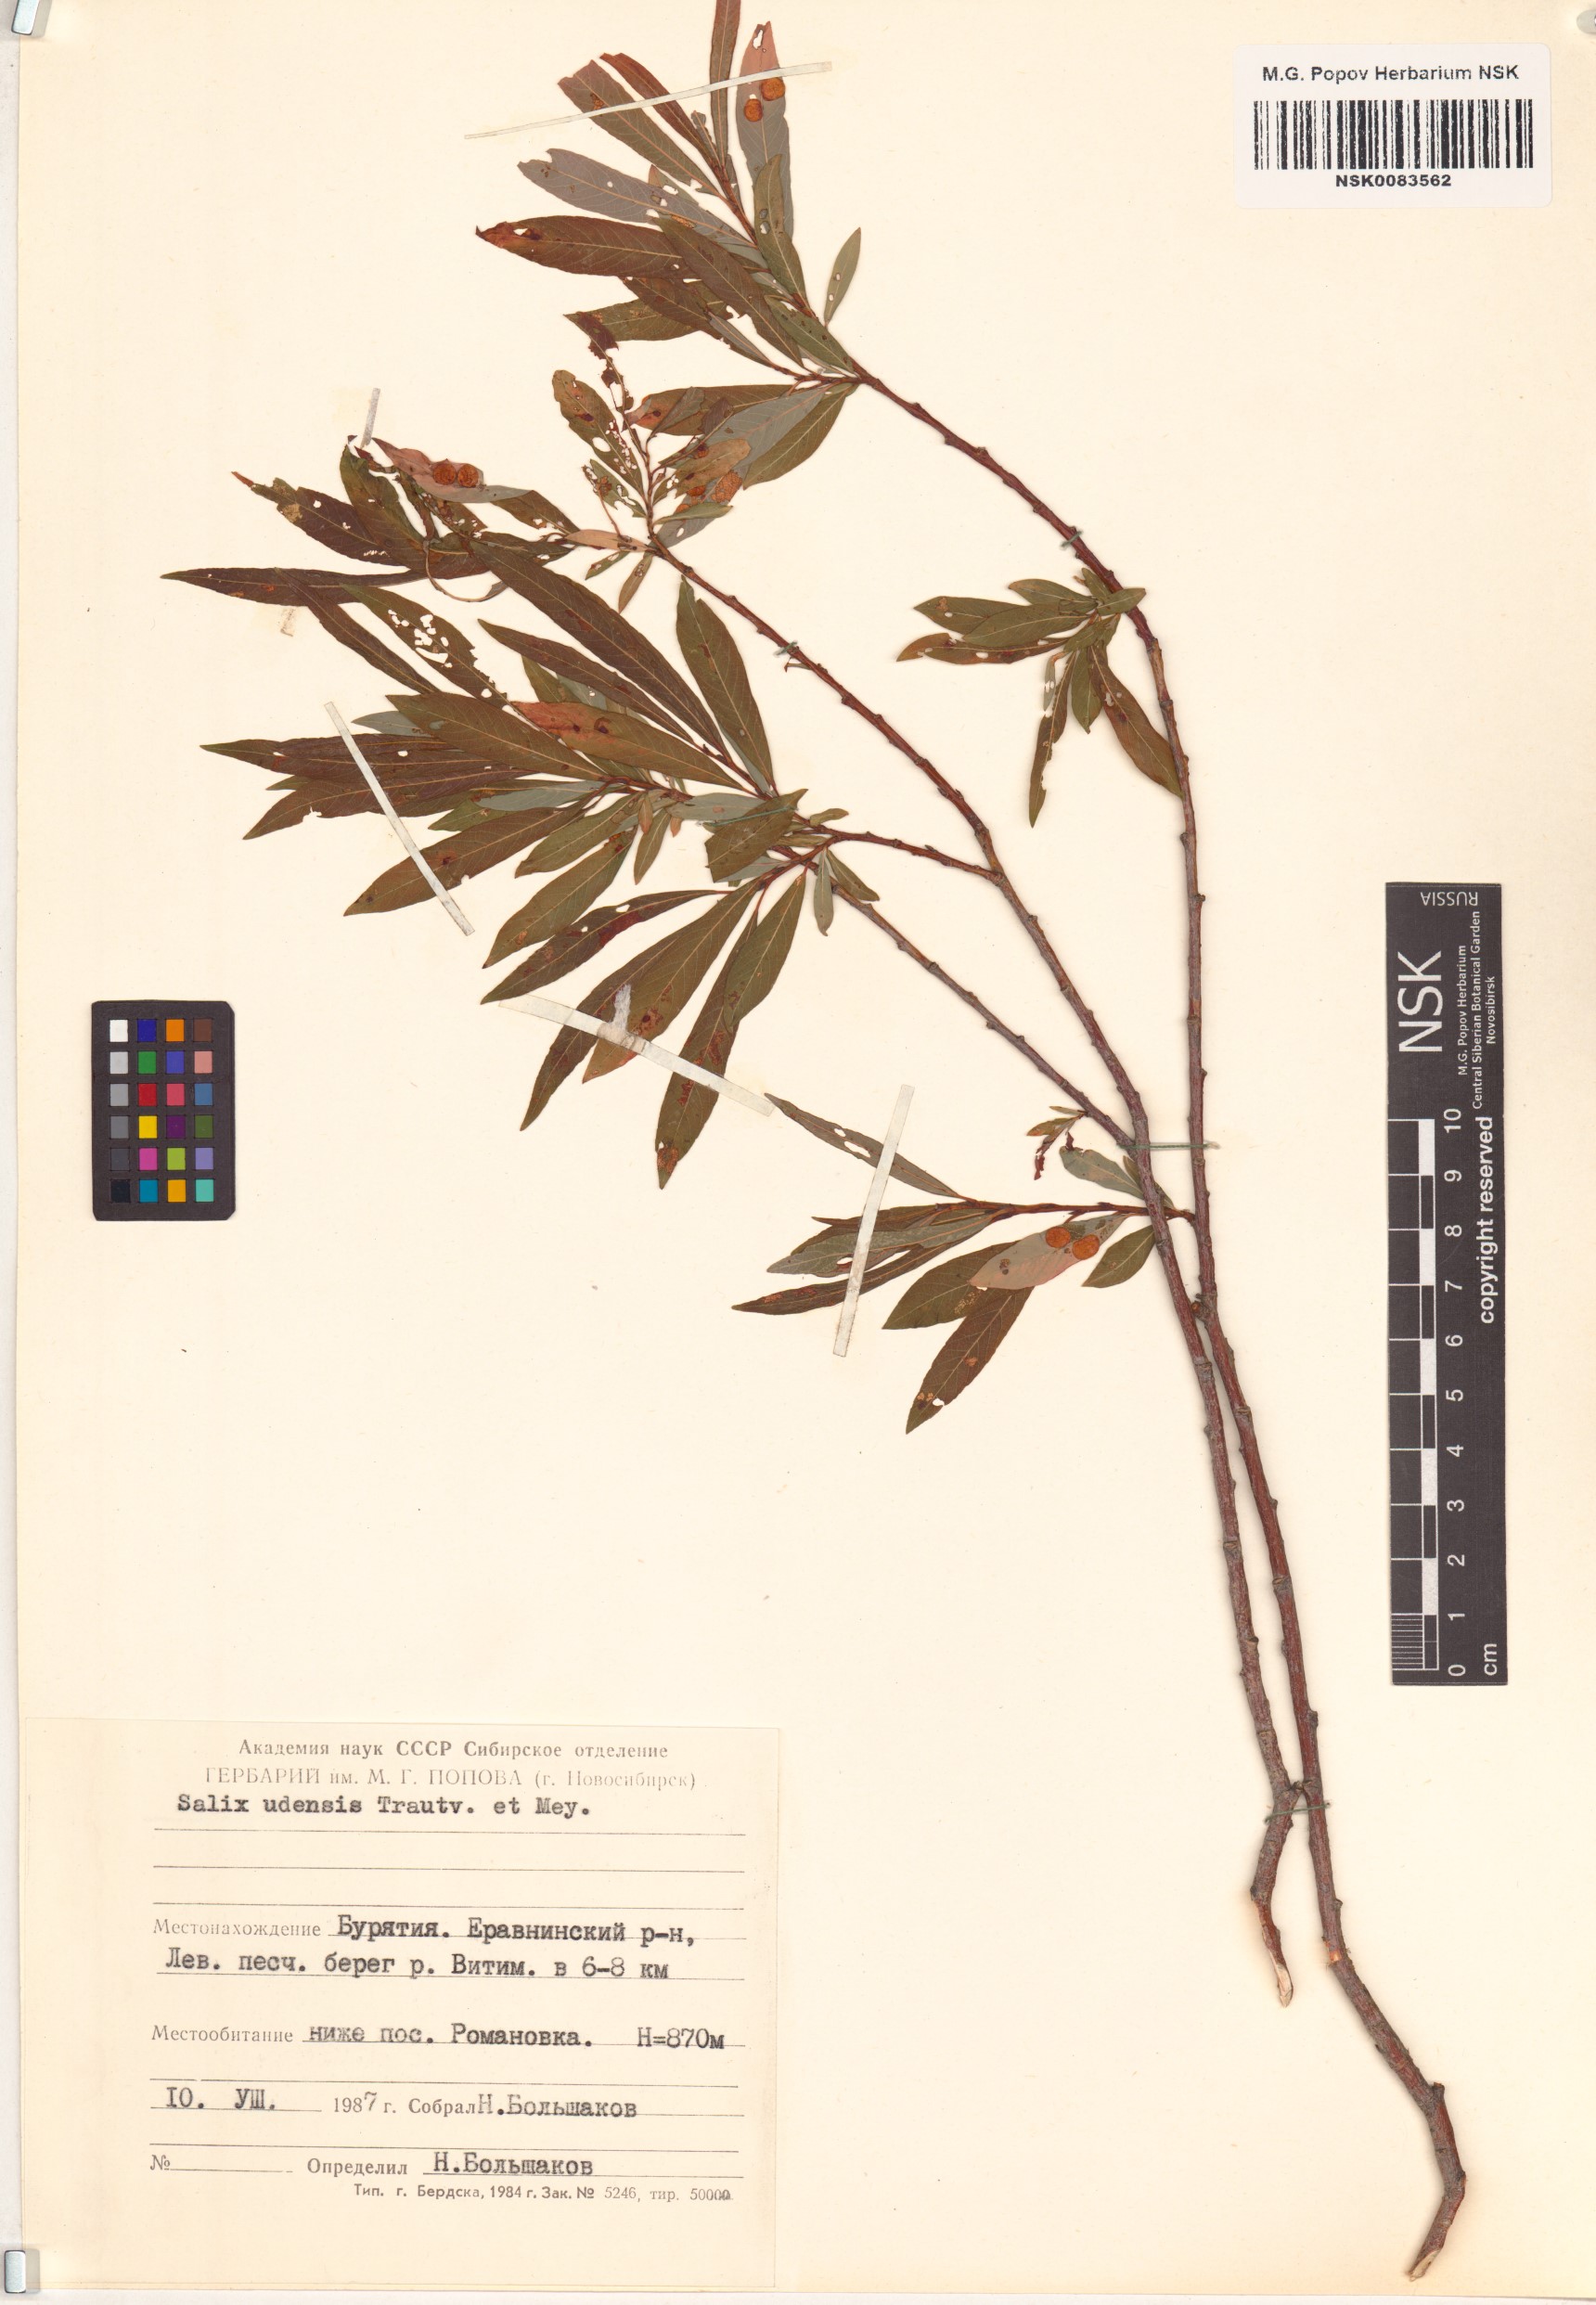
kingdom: Plantae
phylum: Tracheophyta
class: Magnoliopsida
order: Malpighiales
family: Salicaceae
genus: Salix
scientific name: Salix udensis
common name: Sachalin willow
